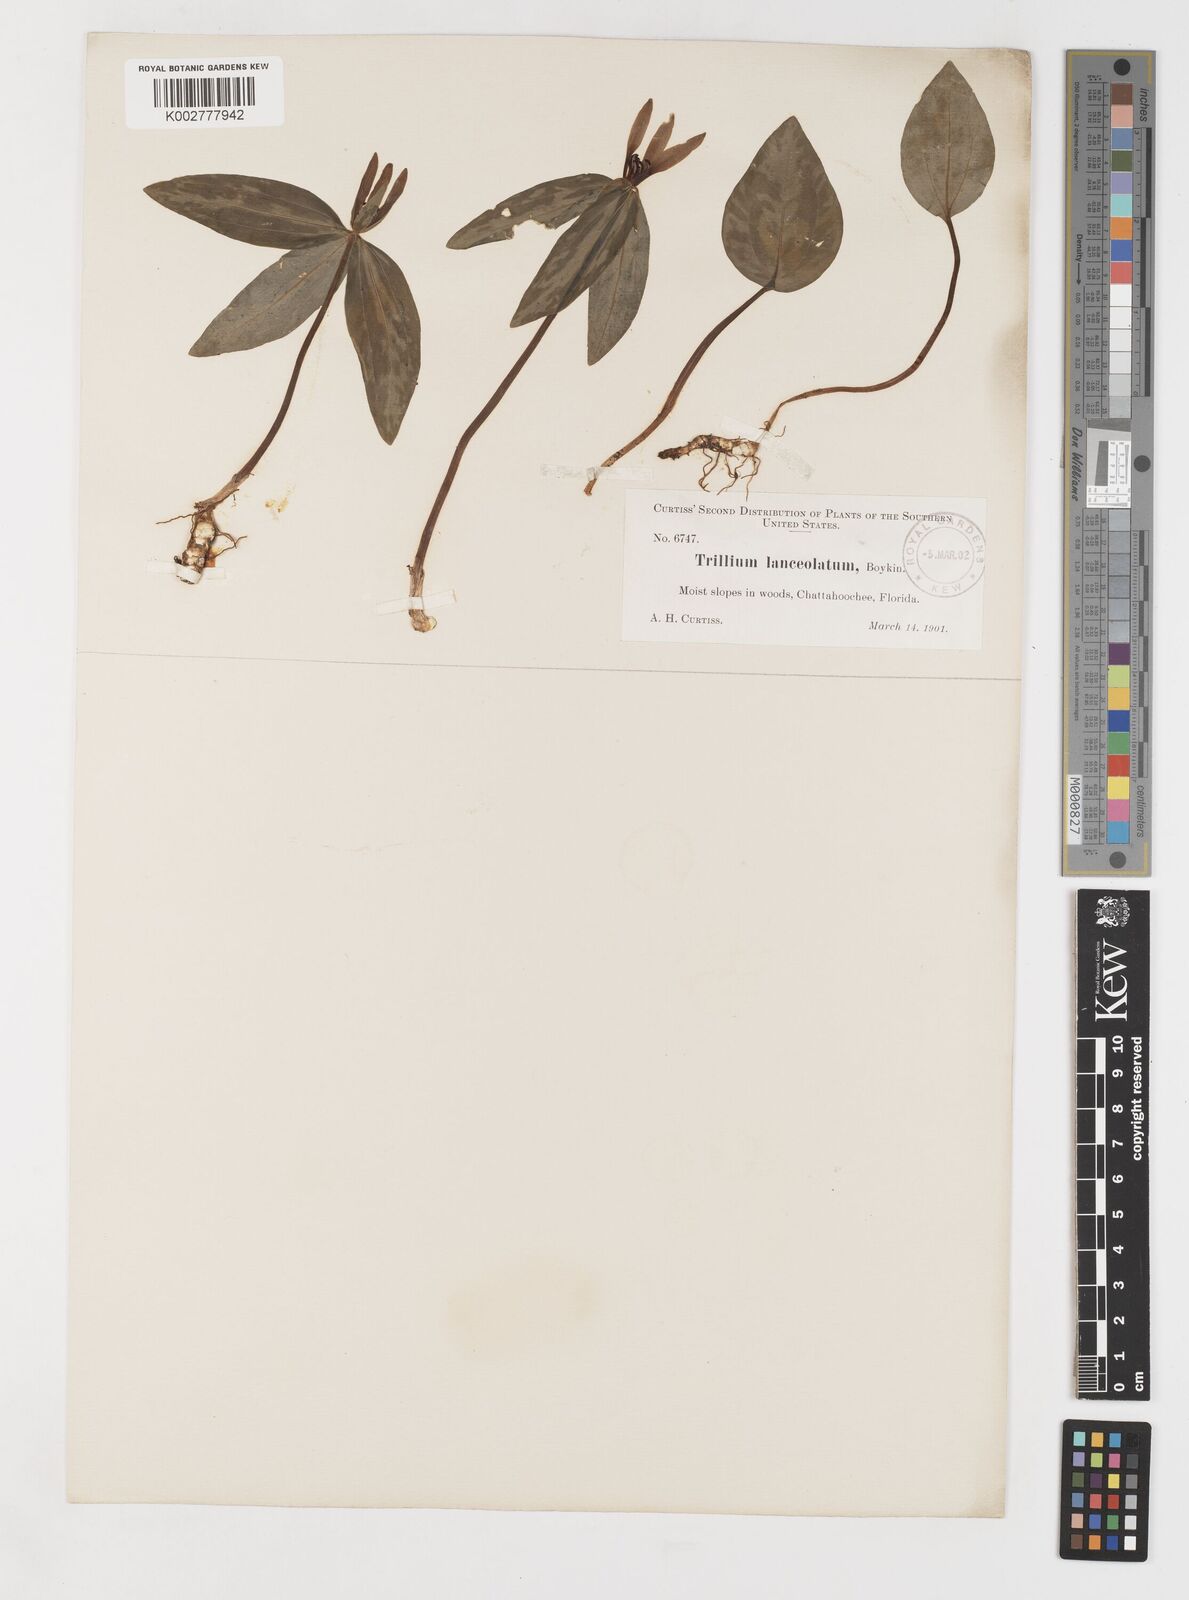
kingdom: Plantae
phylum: Tracheophyta
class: Liliopsida
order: Liliales
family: Melanthiaceae
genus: Trillium
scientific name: Trillium lancifolium
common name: Lance-leaved trillium
